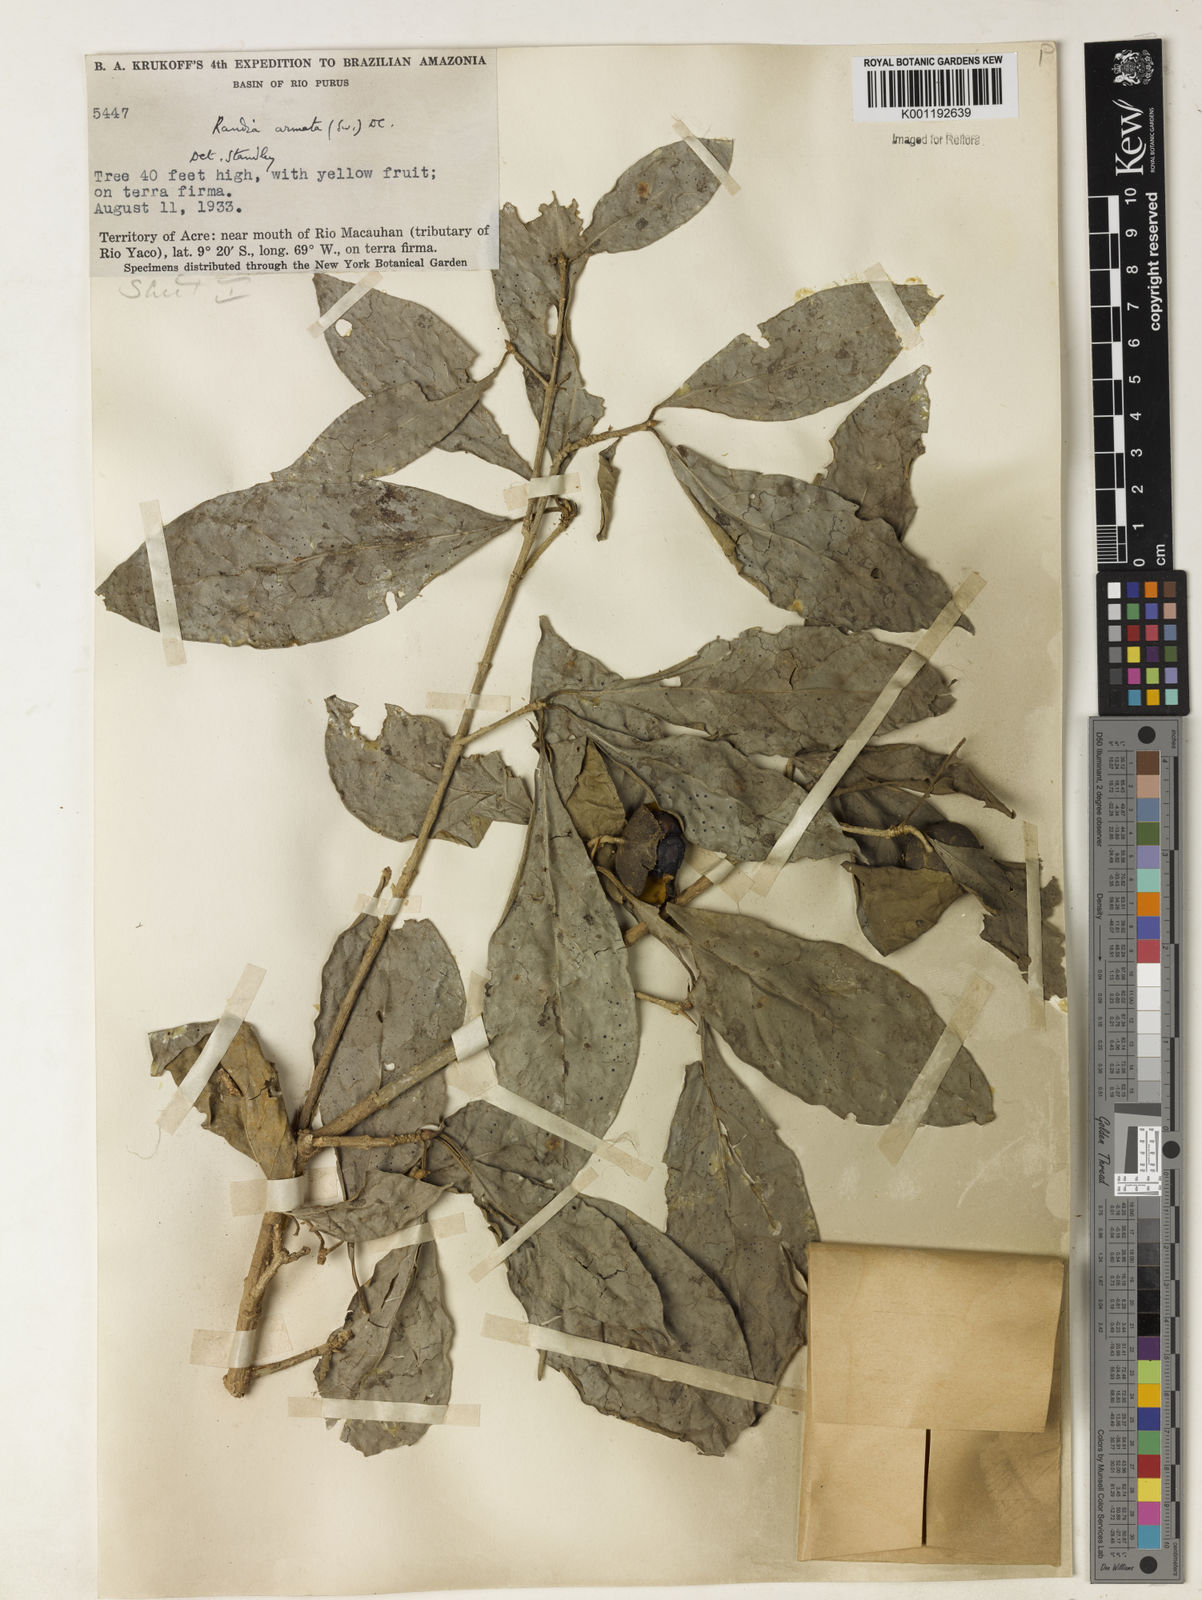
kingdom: Plantae
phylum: Tracheophyta
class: Magnoliopsida
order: Gentianales
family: Rubiaceae
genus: Randia
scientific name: Randia armata
